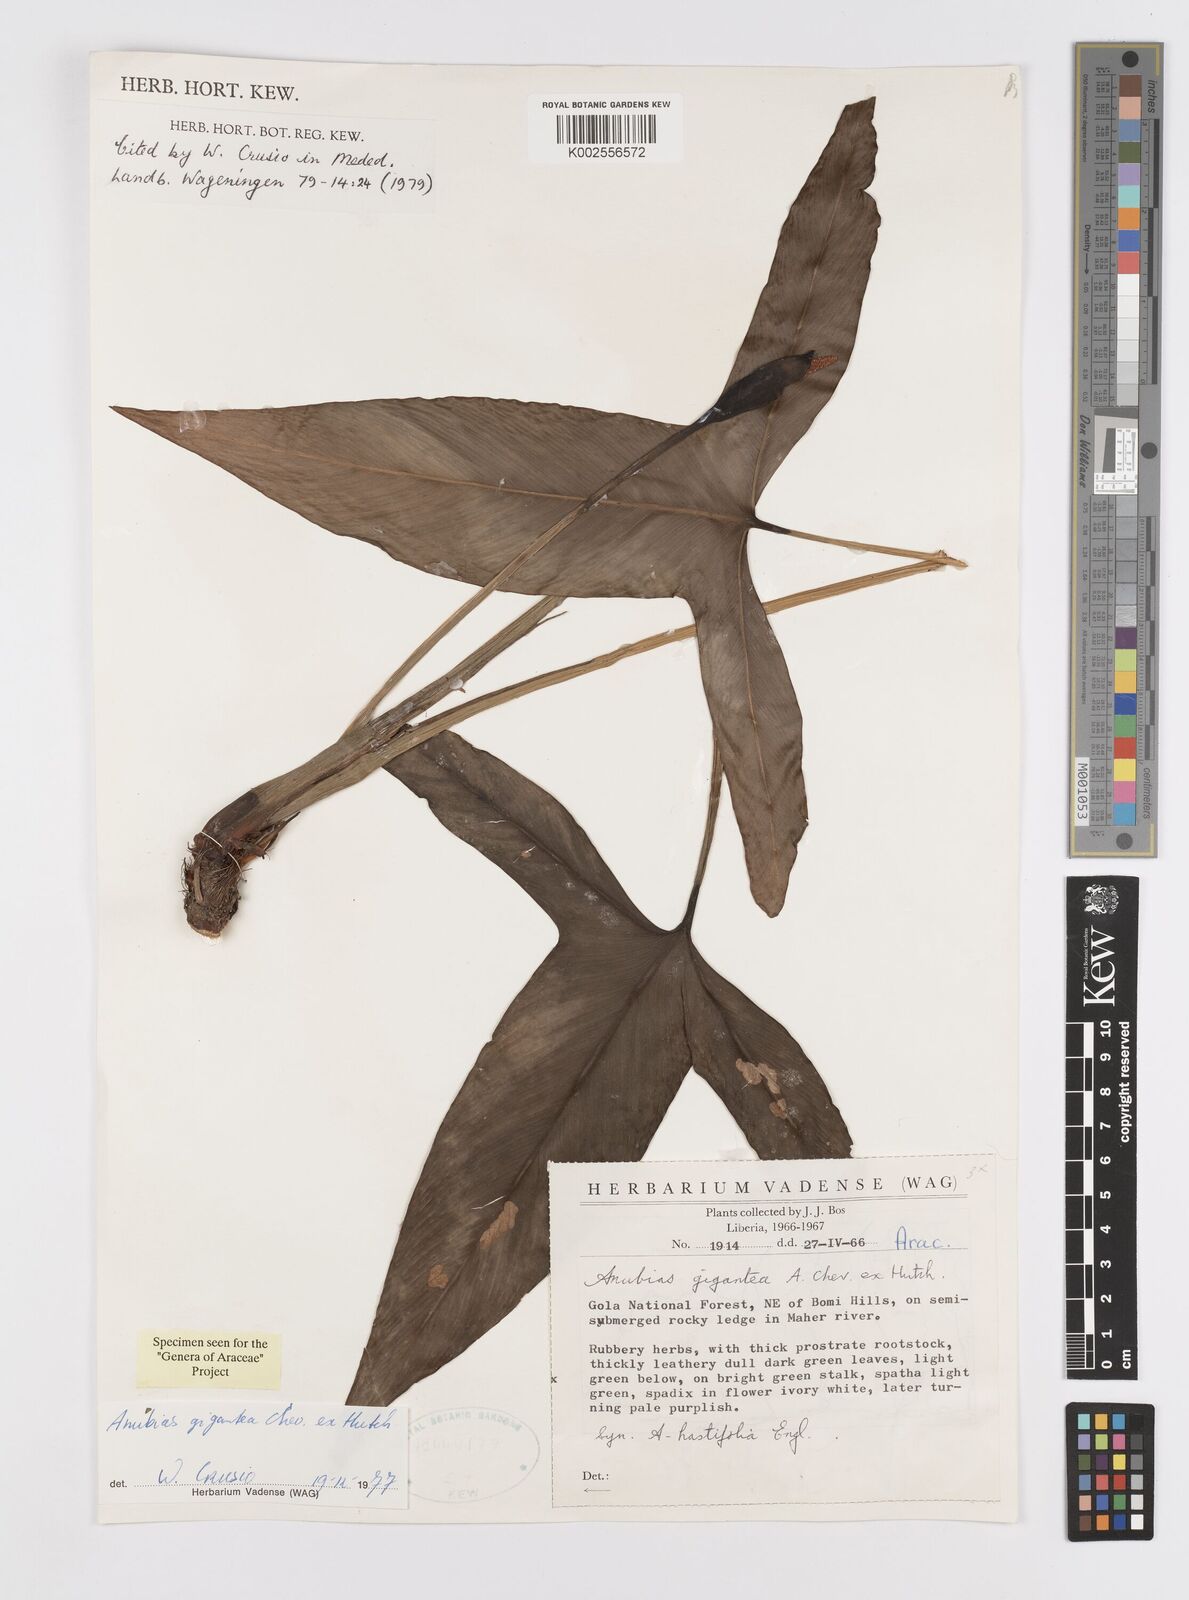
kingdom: Plantae
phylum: Tracheophyta
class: Liliopsida
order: Alismatales
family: Araceae
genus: Anubias
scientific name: Anubias gigantea
